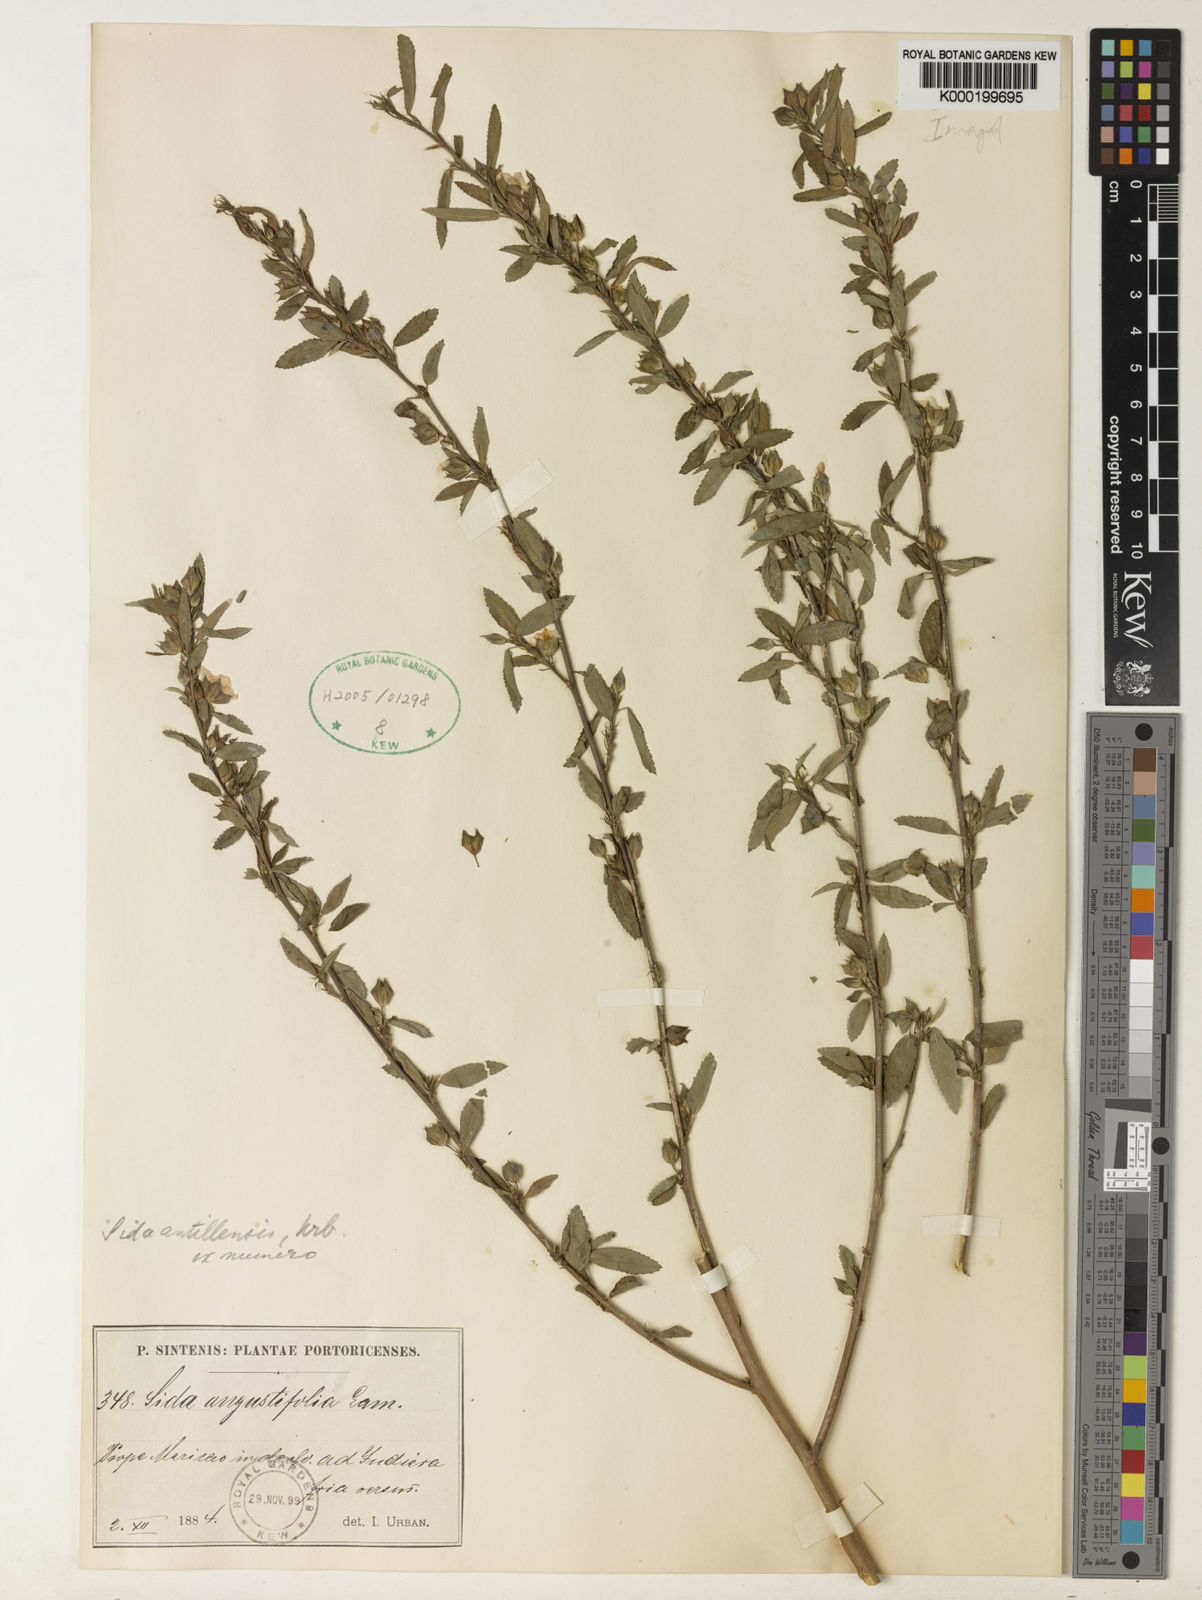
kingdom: Plantae
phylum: Tracheophyta
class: Magnoliopsida
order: Malvales
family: Malvaceae
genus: Sida
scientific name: Sida ulmifolia
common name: Broom weed
